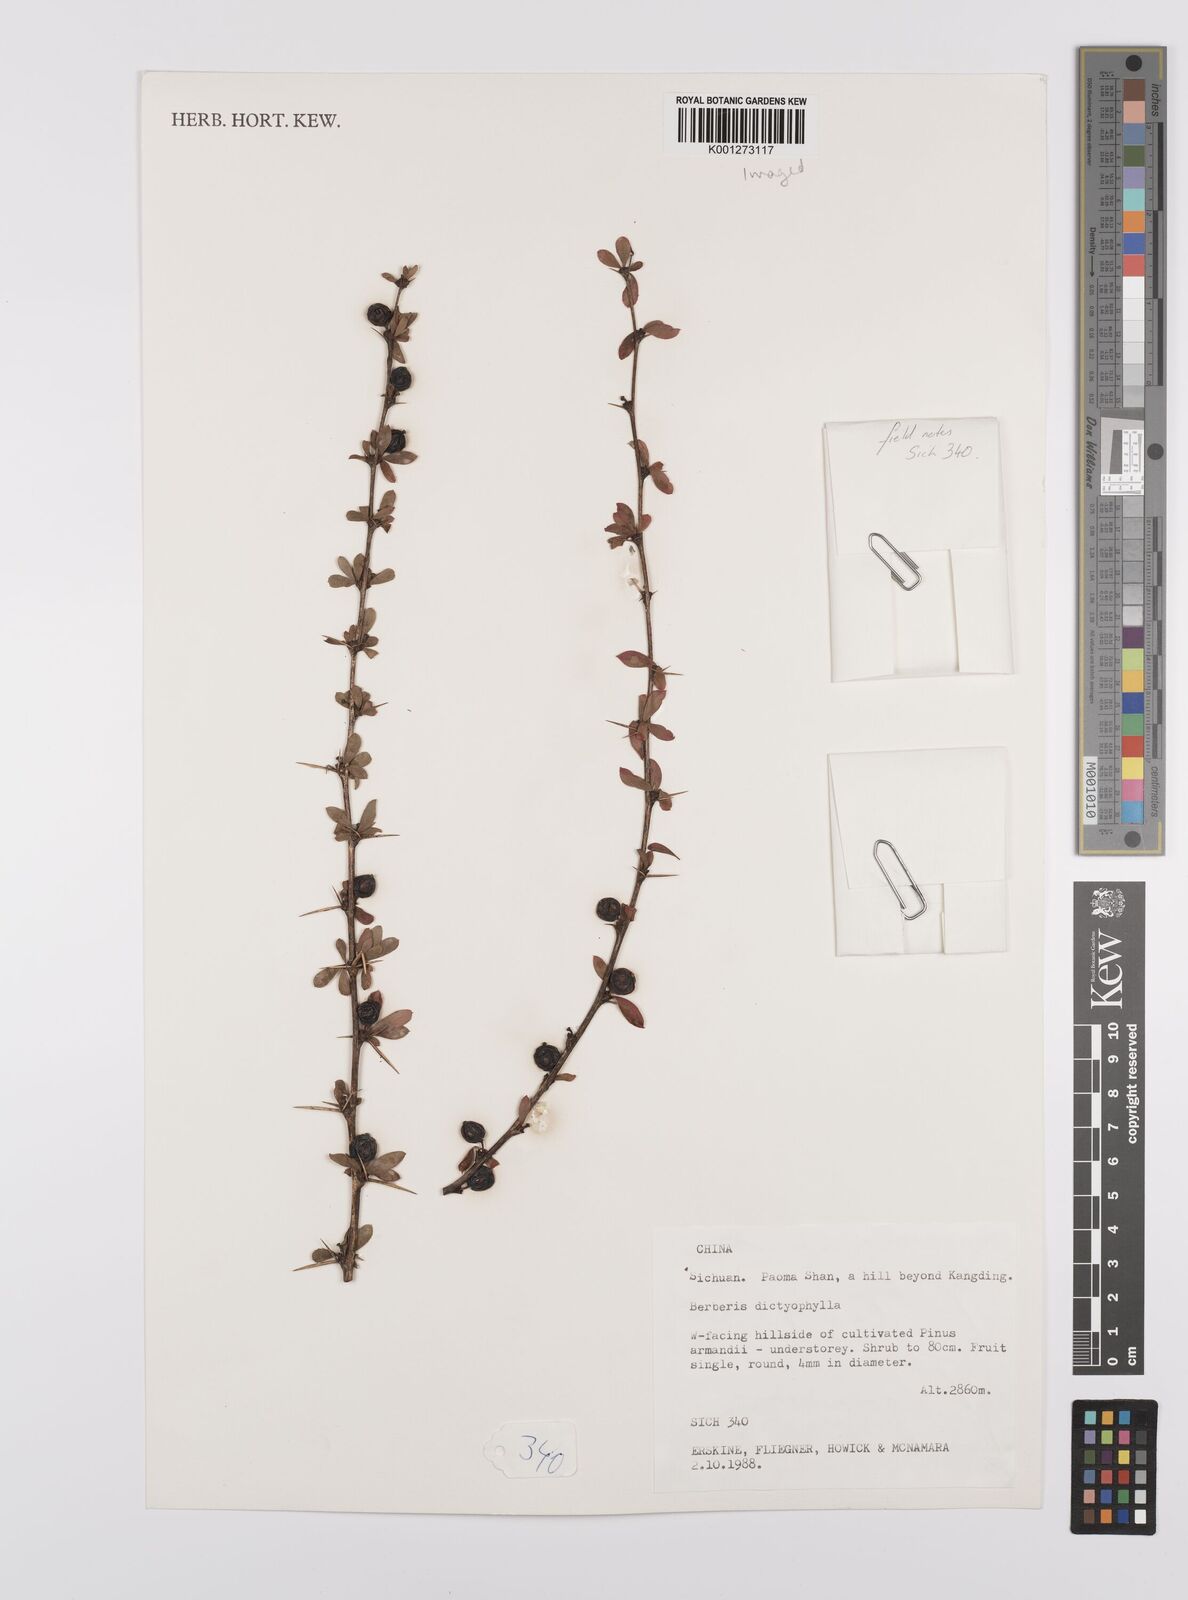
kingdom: Plantae
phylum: Tracheophyta
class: Magnoliopsida
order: Ranunculales
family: Berberidaceae
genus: Berberis
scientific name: Berberis dictyophylla
